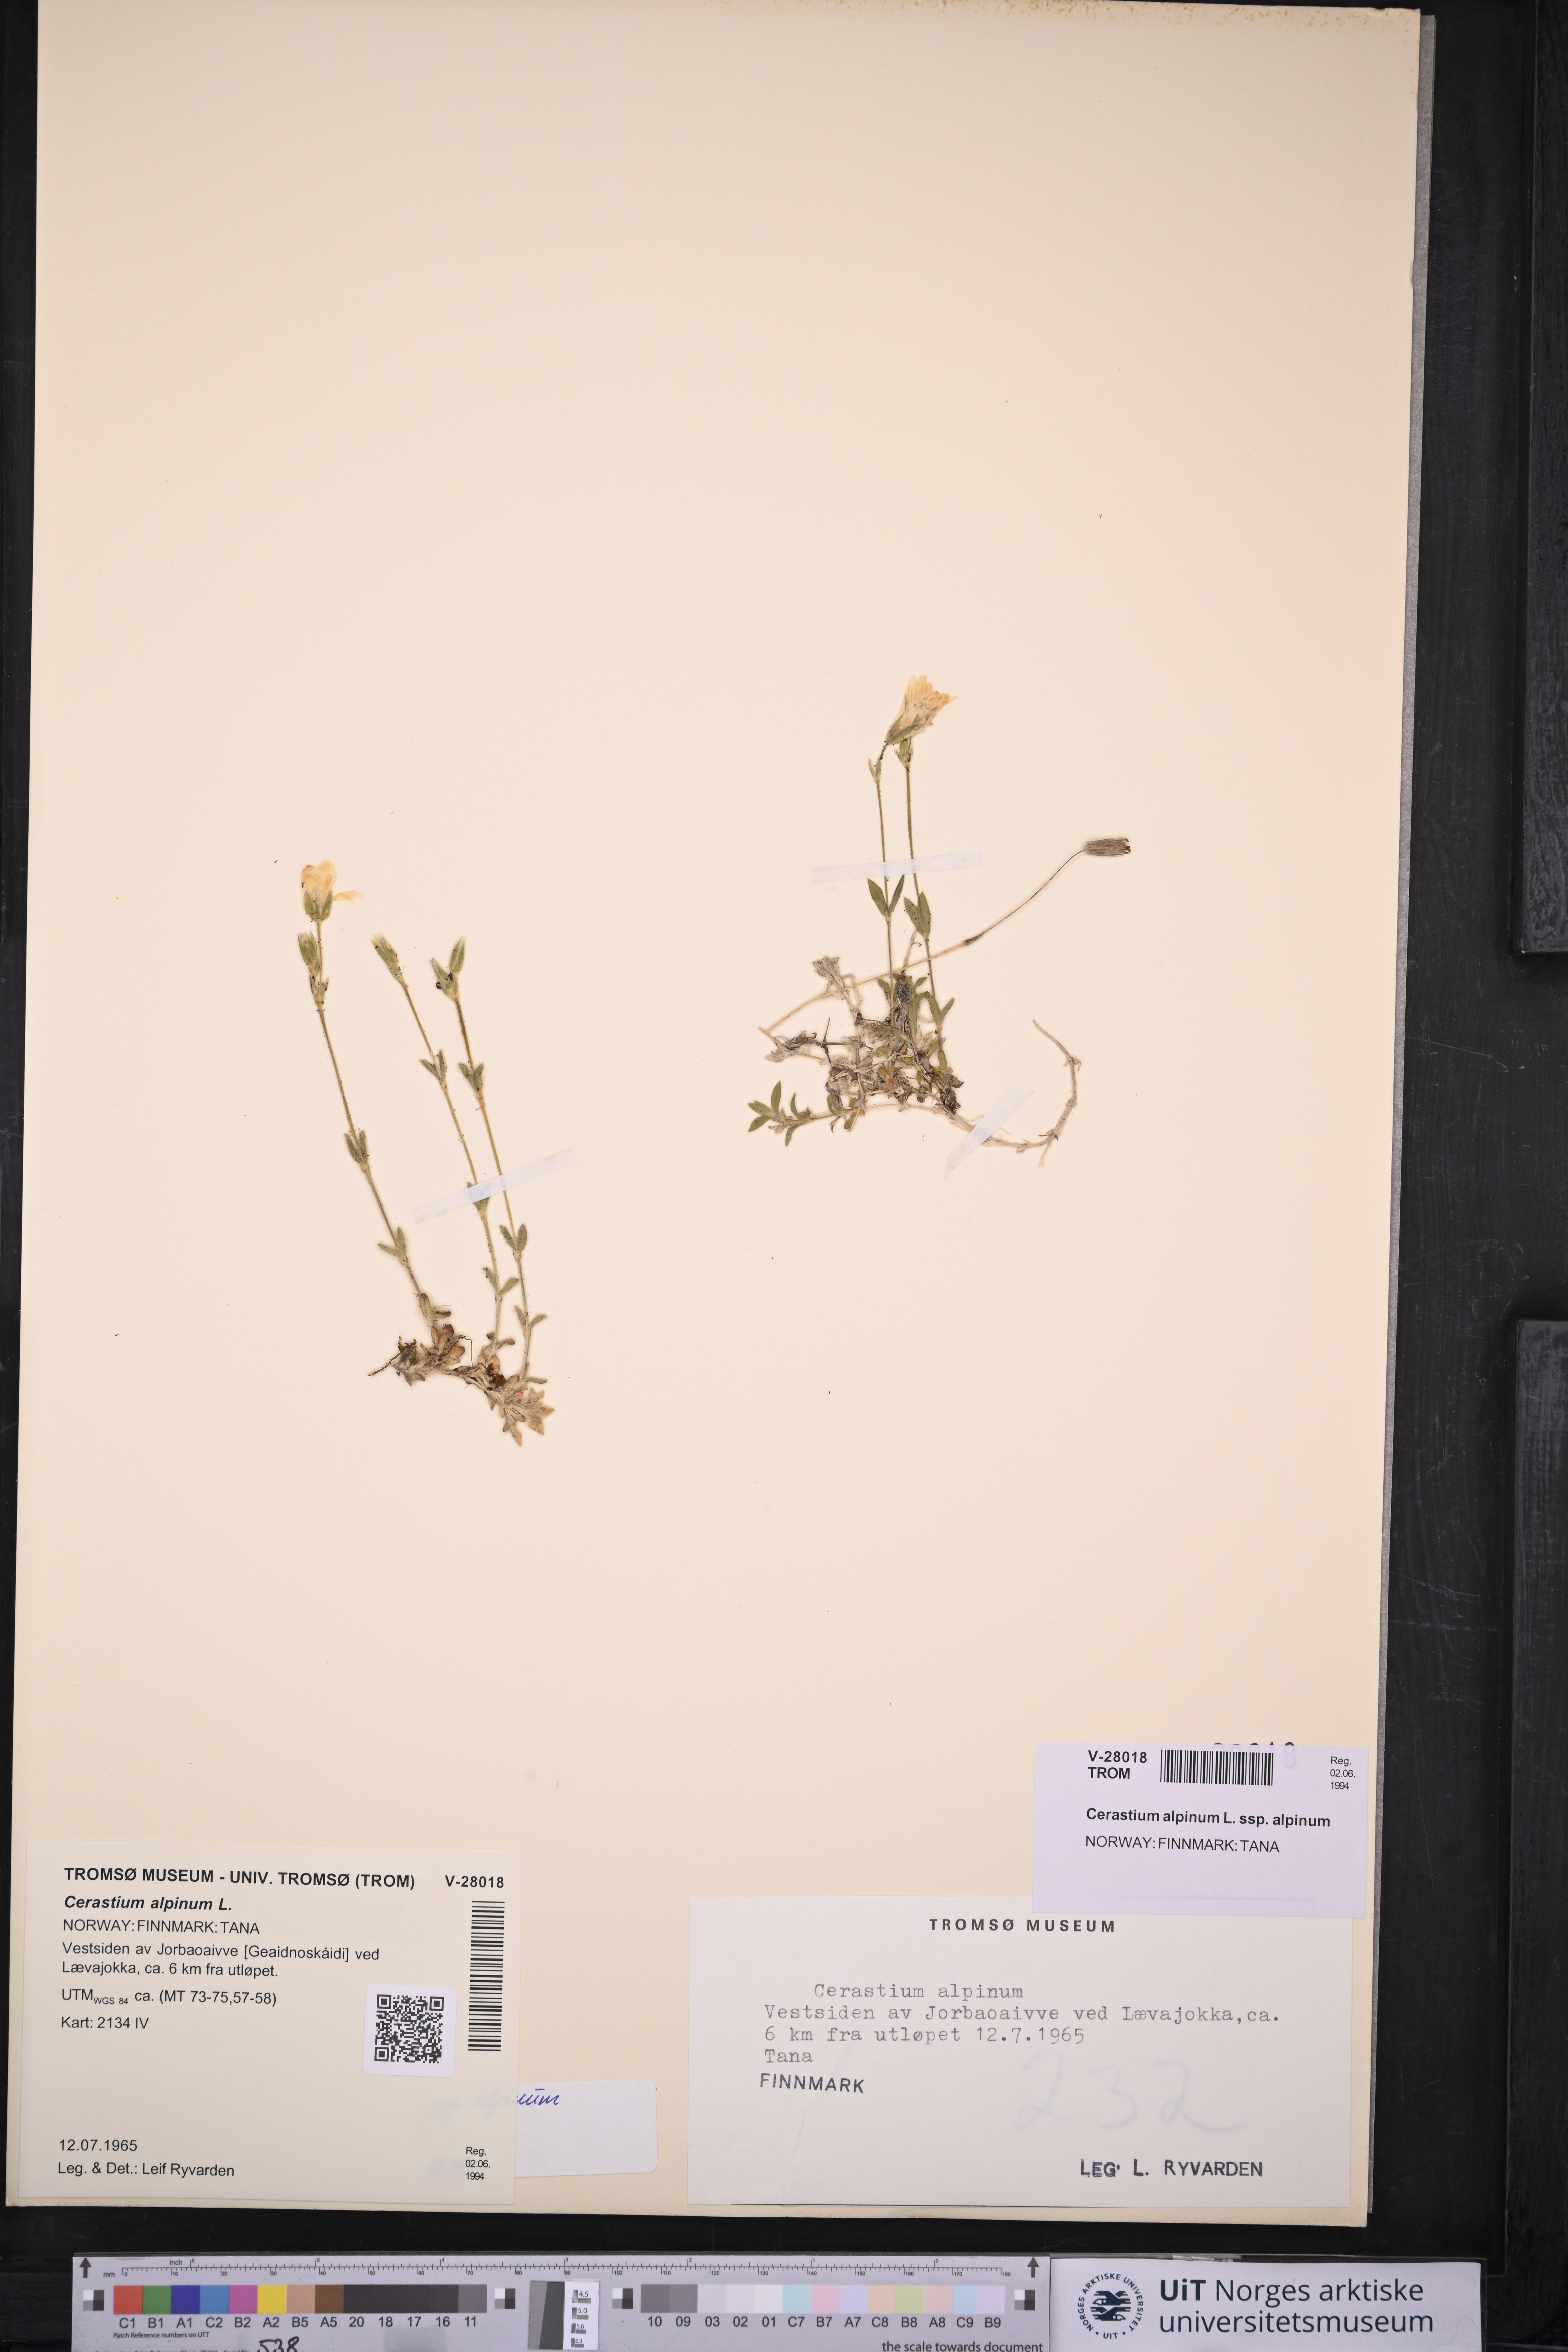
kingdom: Plantae
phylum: Tracheophyta
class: Magnoliopsida
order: Caryophyllales
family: Caryophyllaceae
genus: Cerastium
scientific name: Cerastium alpinum
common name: Alpine mouse-ear
